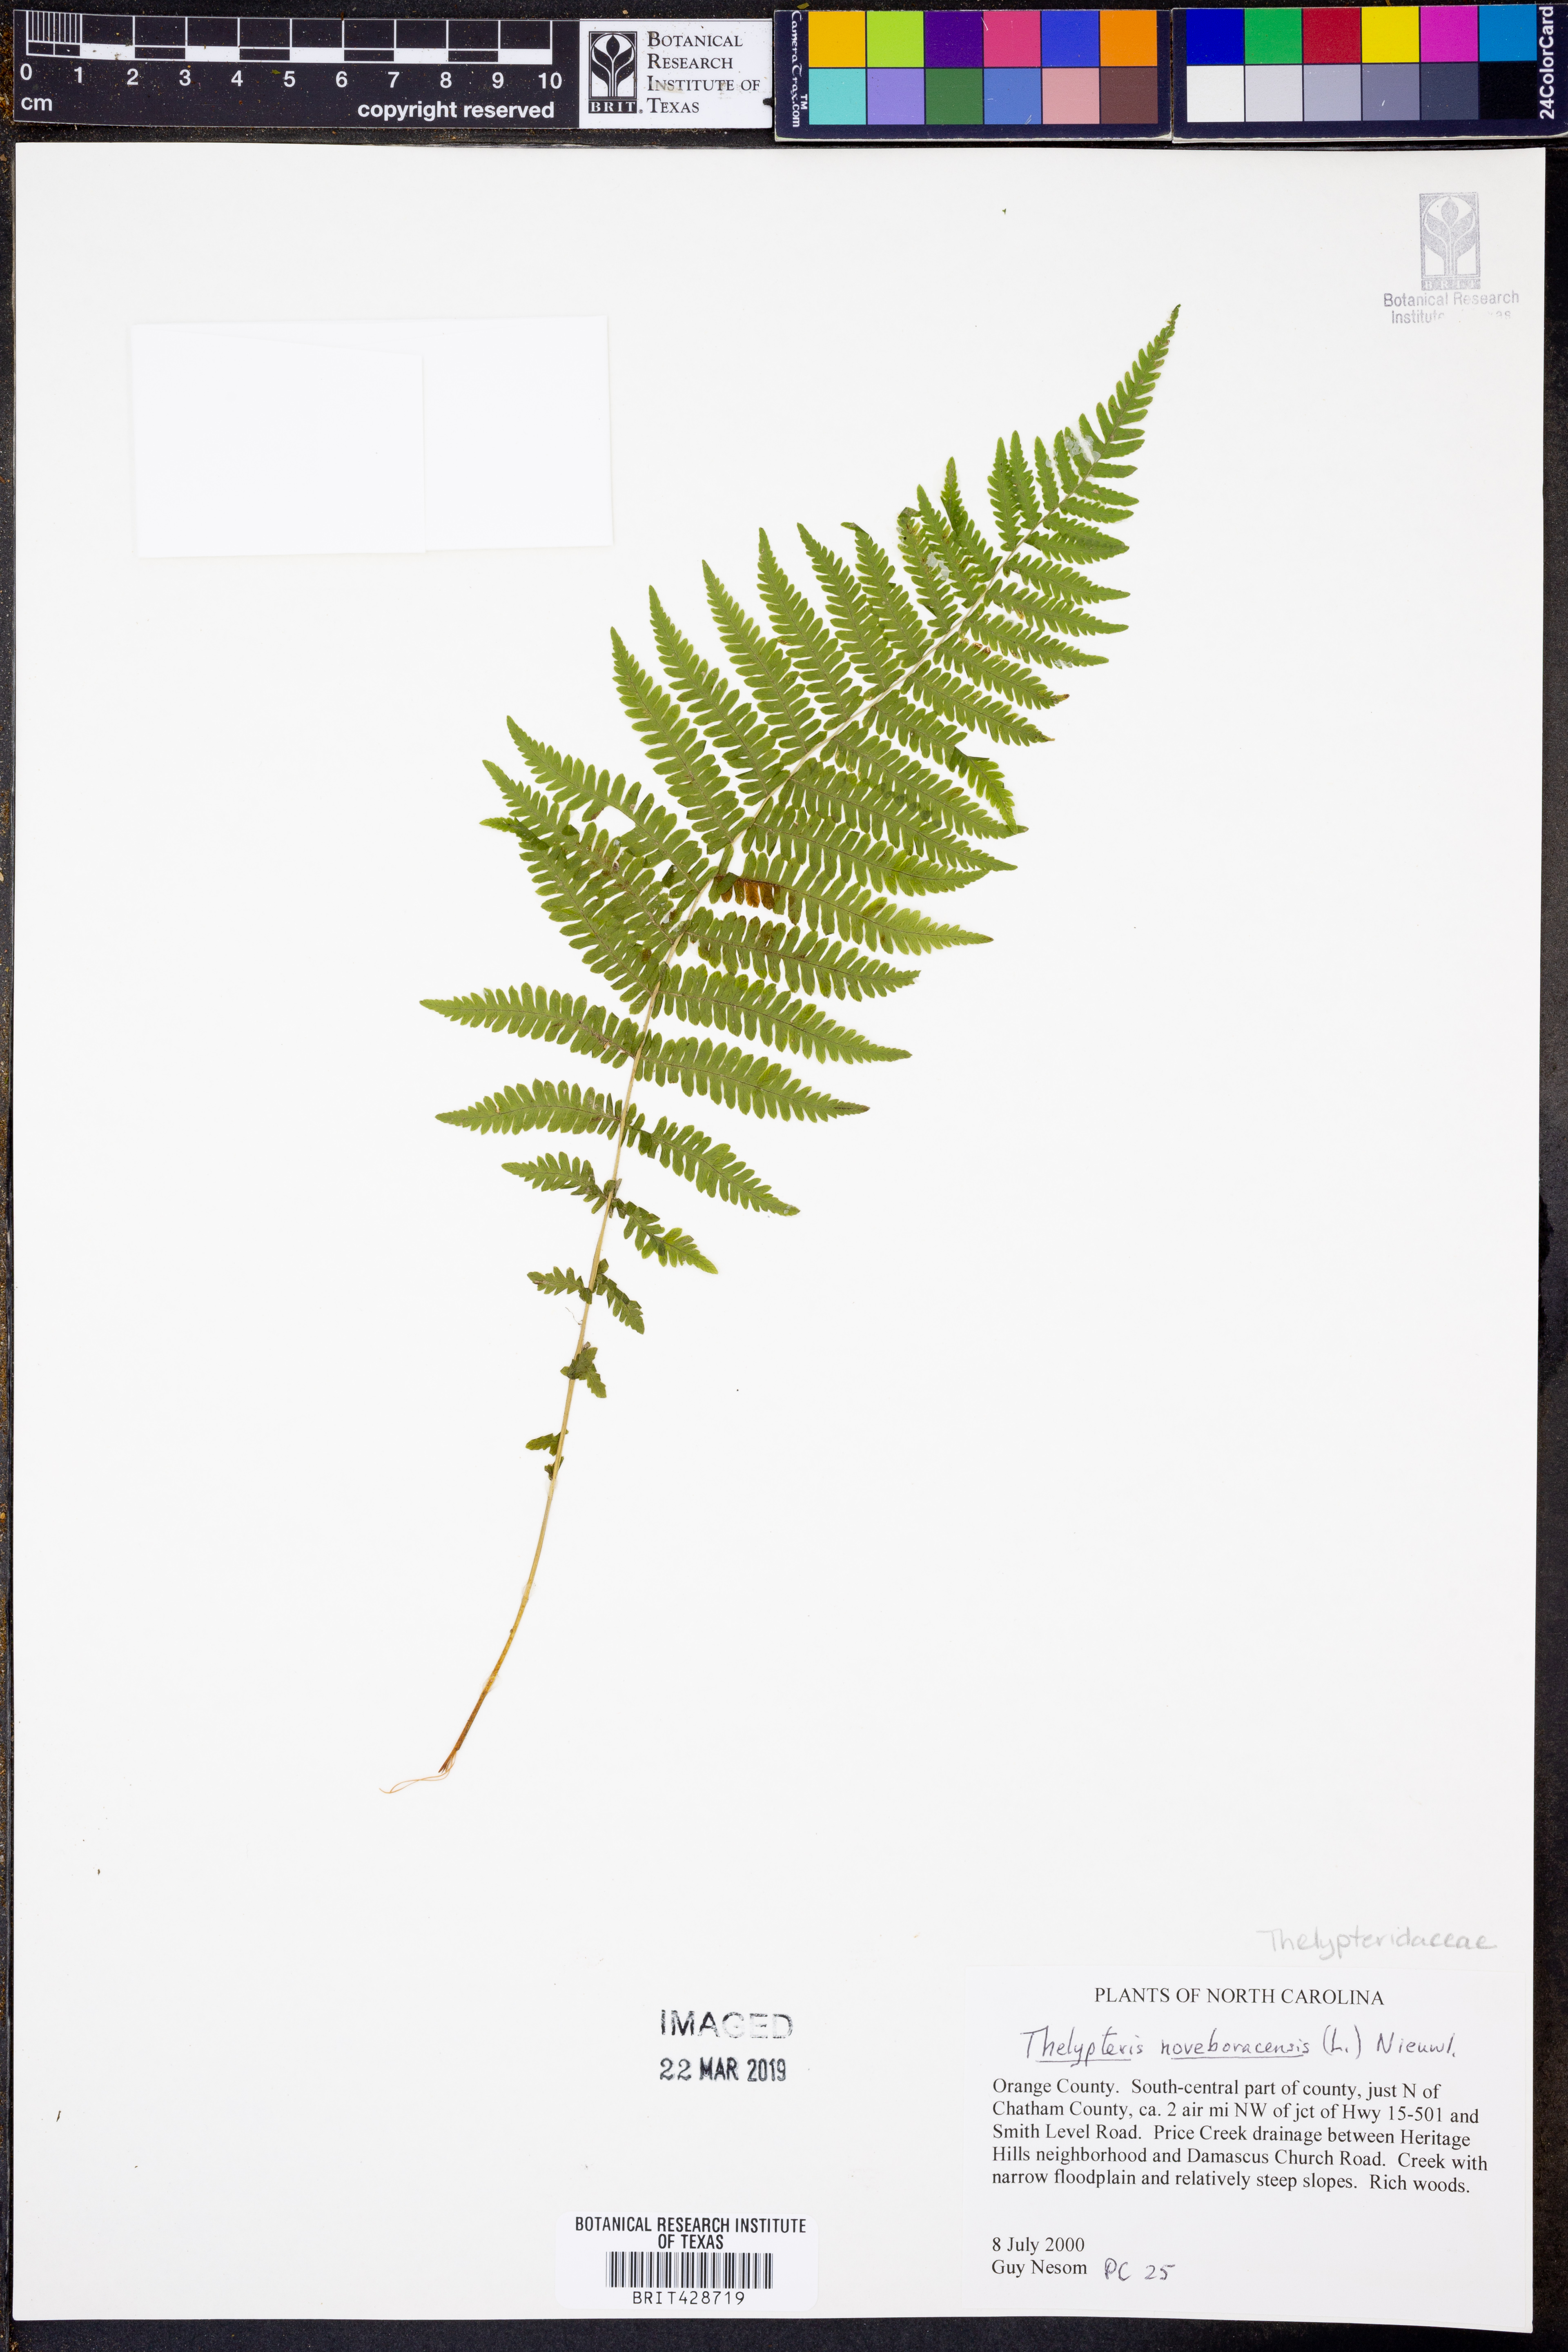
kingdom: Plantae
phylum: Tracheophyta
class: Polypodiopsida
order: Polypodiales
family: Thelypteridaceae
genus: Amauropelta
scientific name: Amauropelta noveboracensis
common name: New york fern
